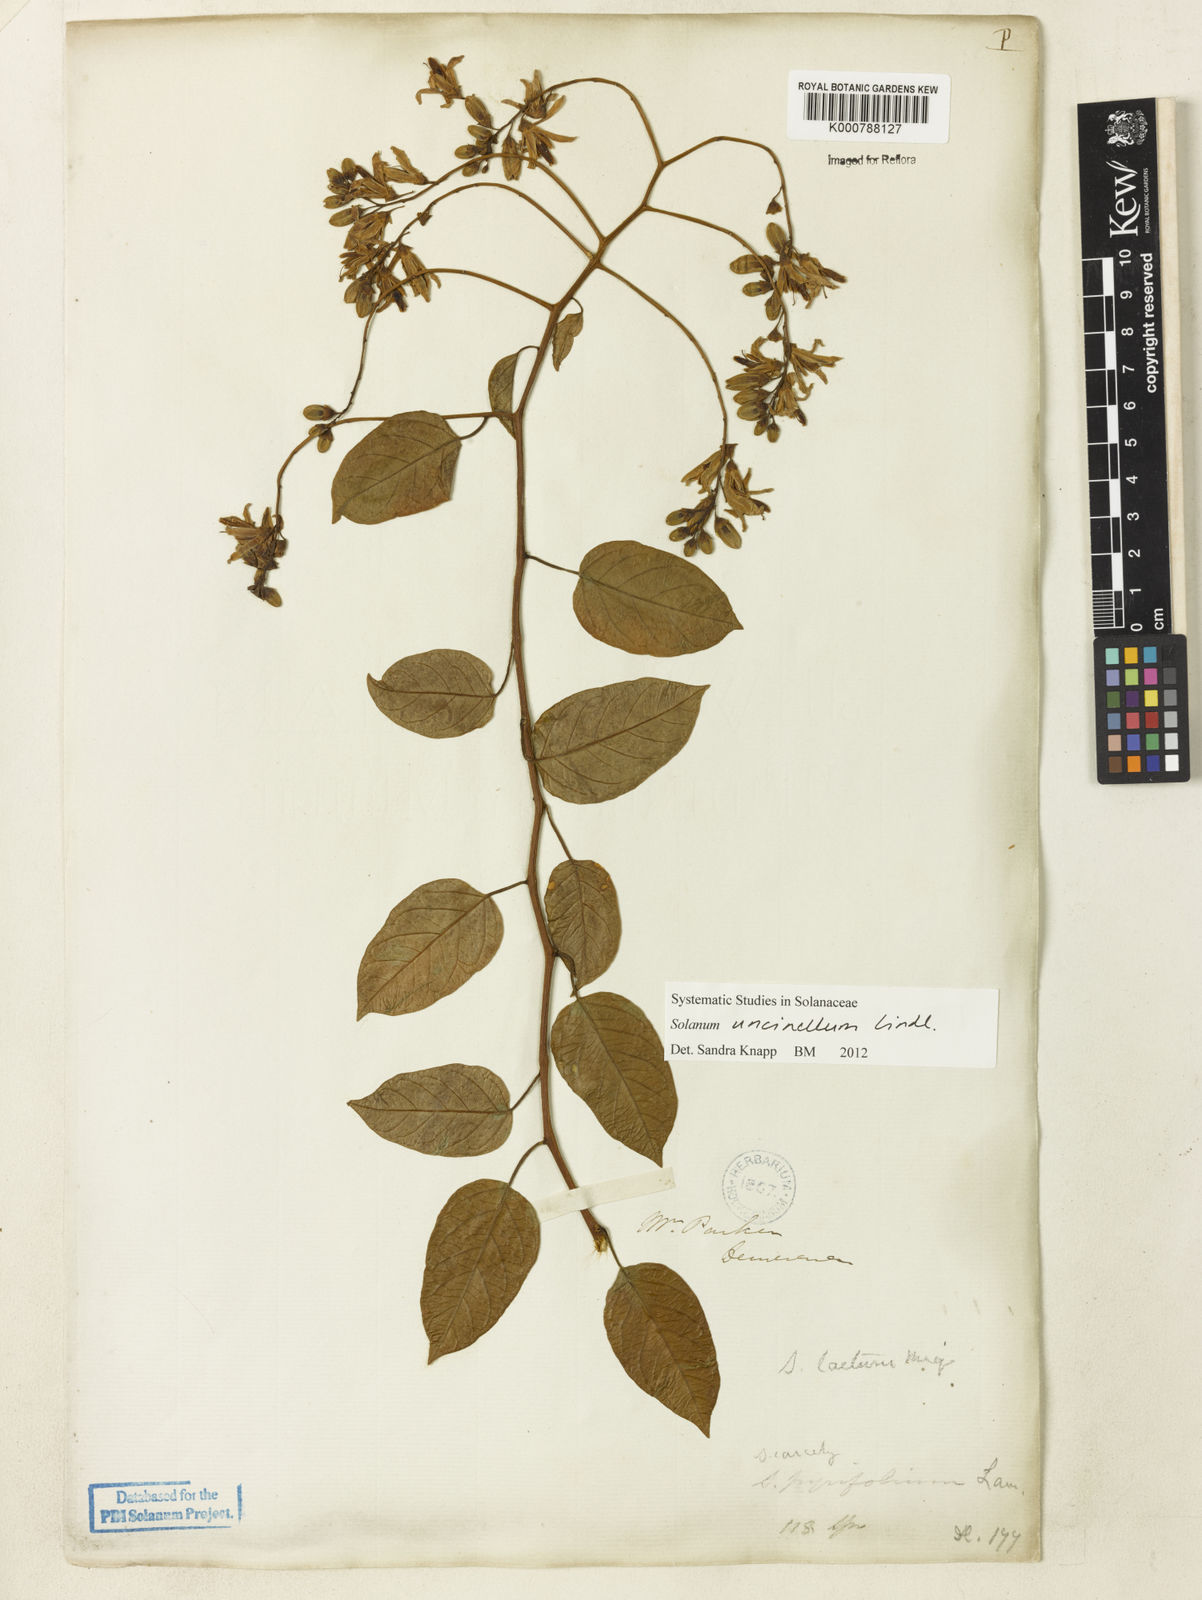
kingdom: Plantae
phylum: Tracheophyta
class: Magnoliopsida
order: Solanales
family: Solanaceae
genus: Solanum
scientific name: Solanum uncinellum
